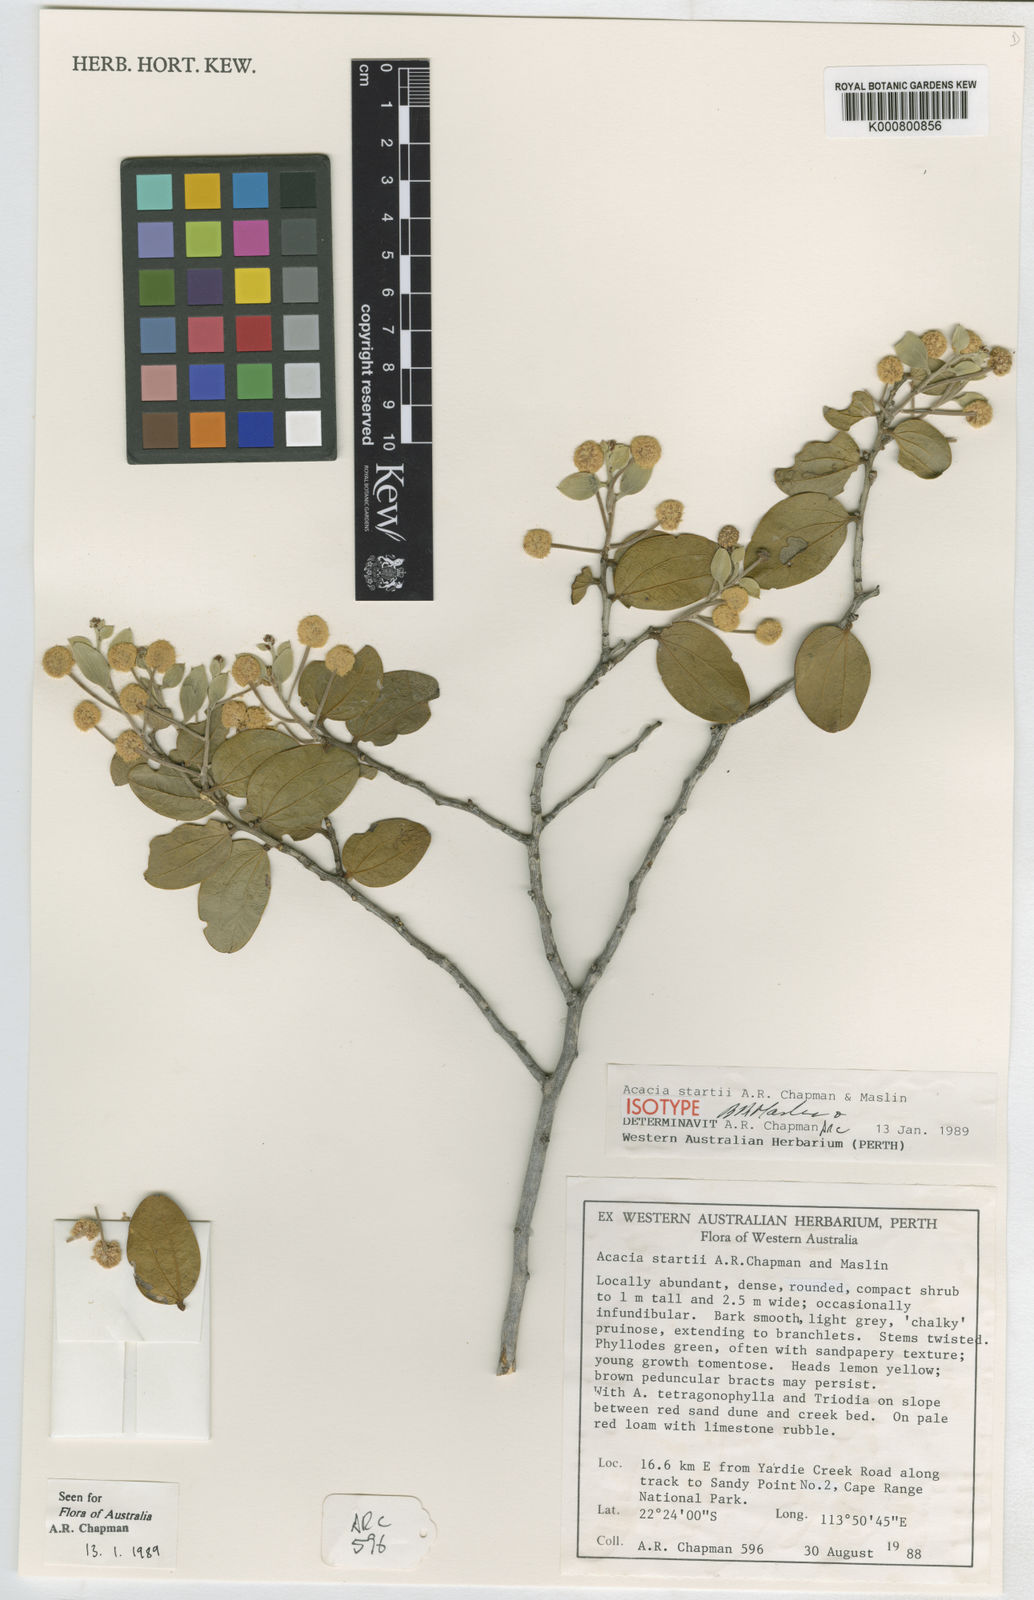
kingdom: Plantae
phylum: Tracheophyta
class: Magnoliopsida
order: Fabales
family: Fabaceae
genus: Acacia
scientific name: Acacia startii
